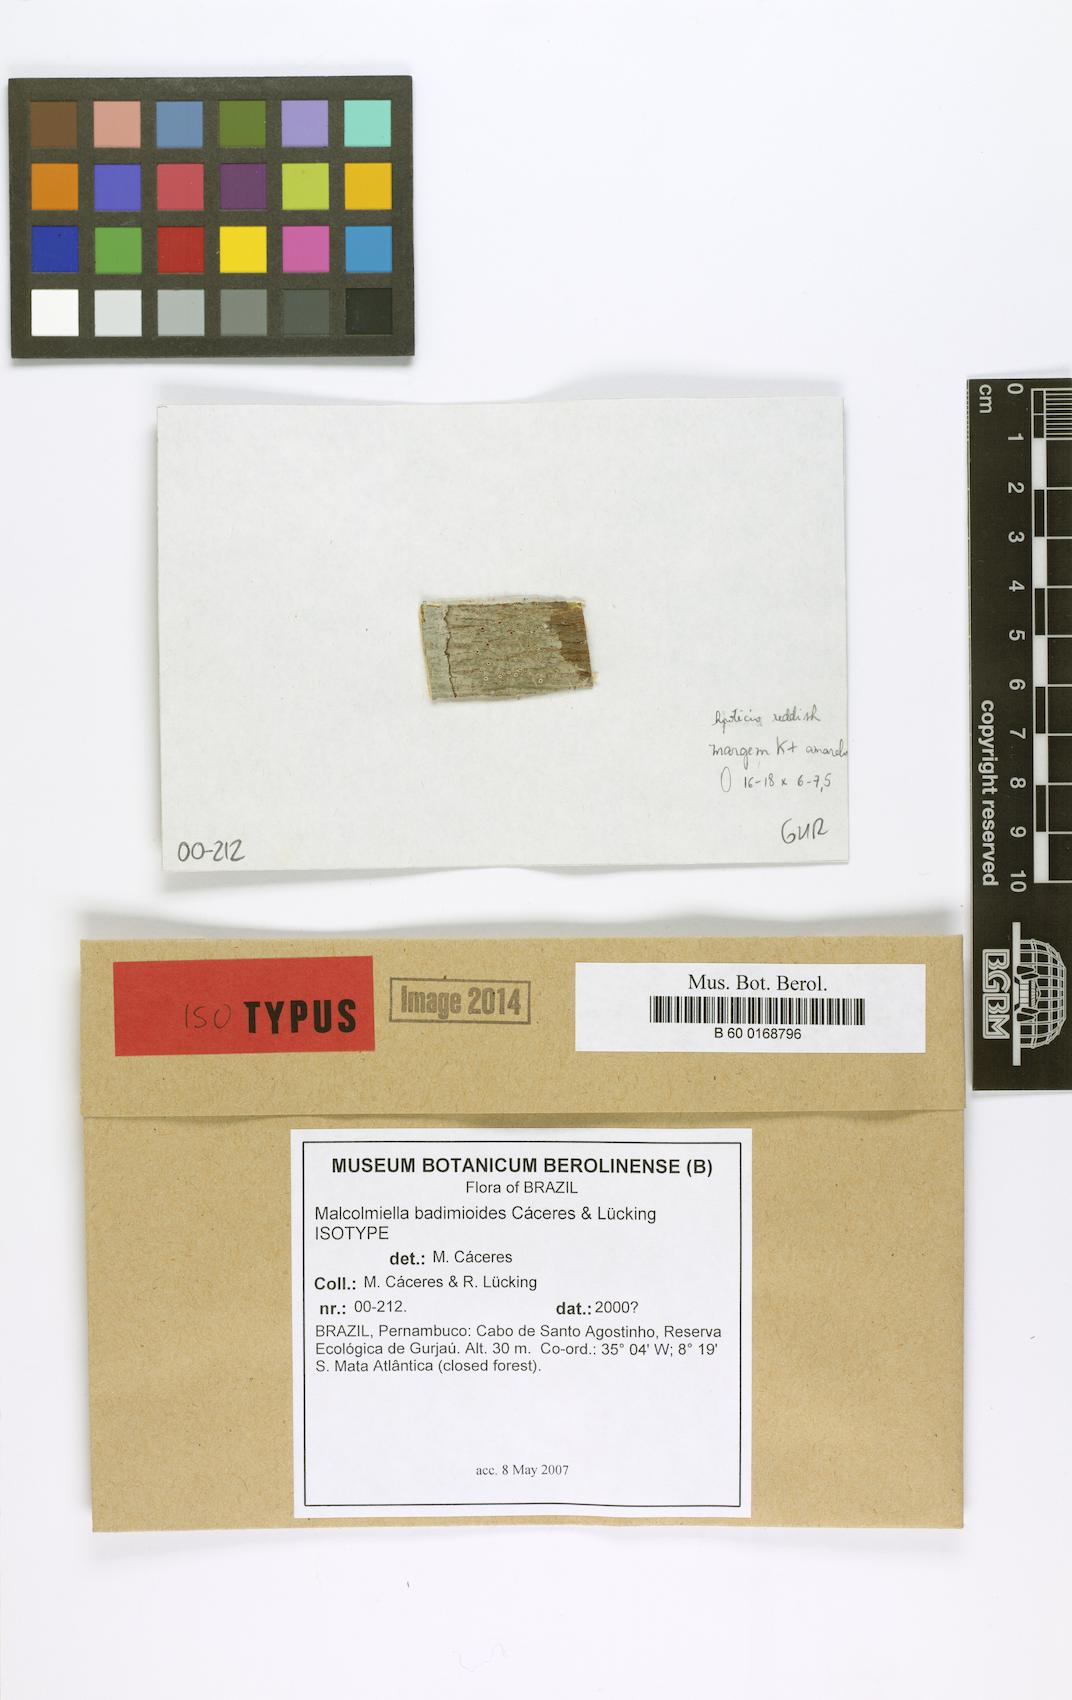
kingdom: Fungi
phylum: Ascomycota
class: Lecanoromycetes
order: Lecanorales
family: Malmideaceae
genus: Malmidea
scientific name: Malmidea badimioides
